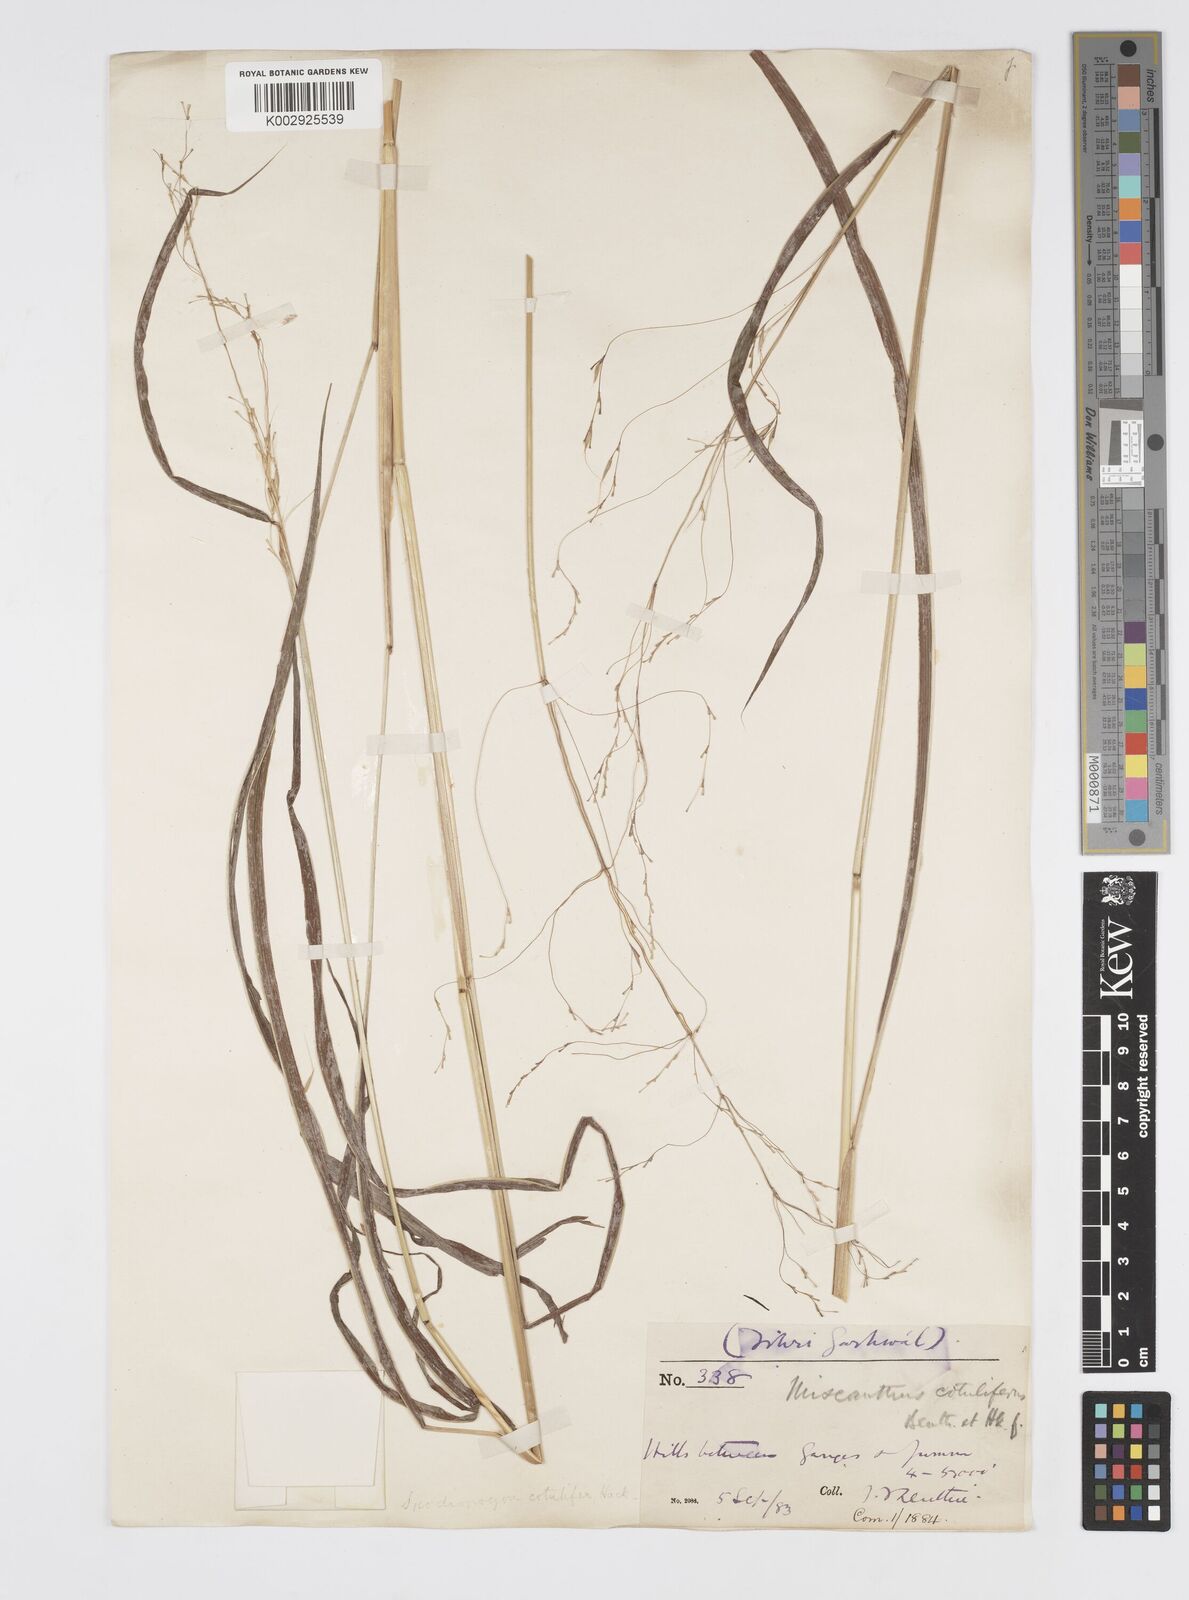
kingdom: Plantae
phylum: Tracheophyta
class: Liliopsida
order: Poales
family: Poaceae
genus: Spodiopogon
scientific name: Spodiopogon cotulifer
